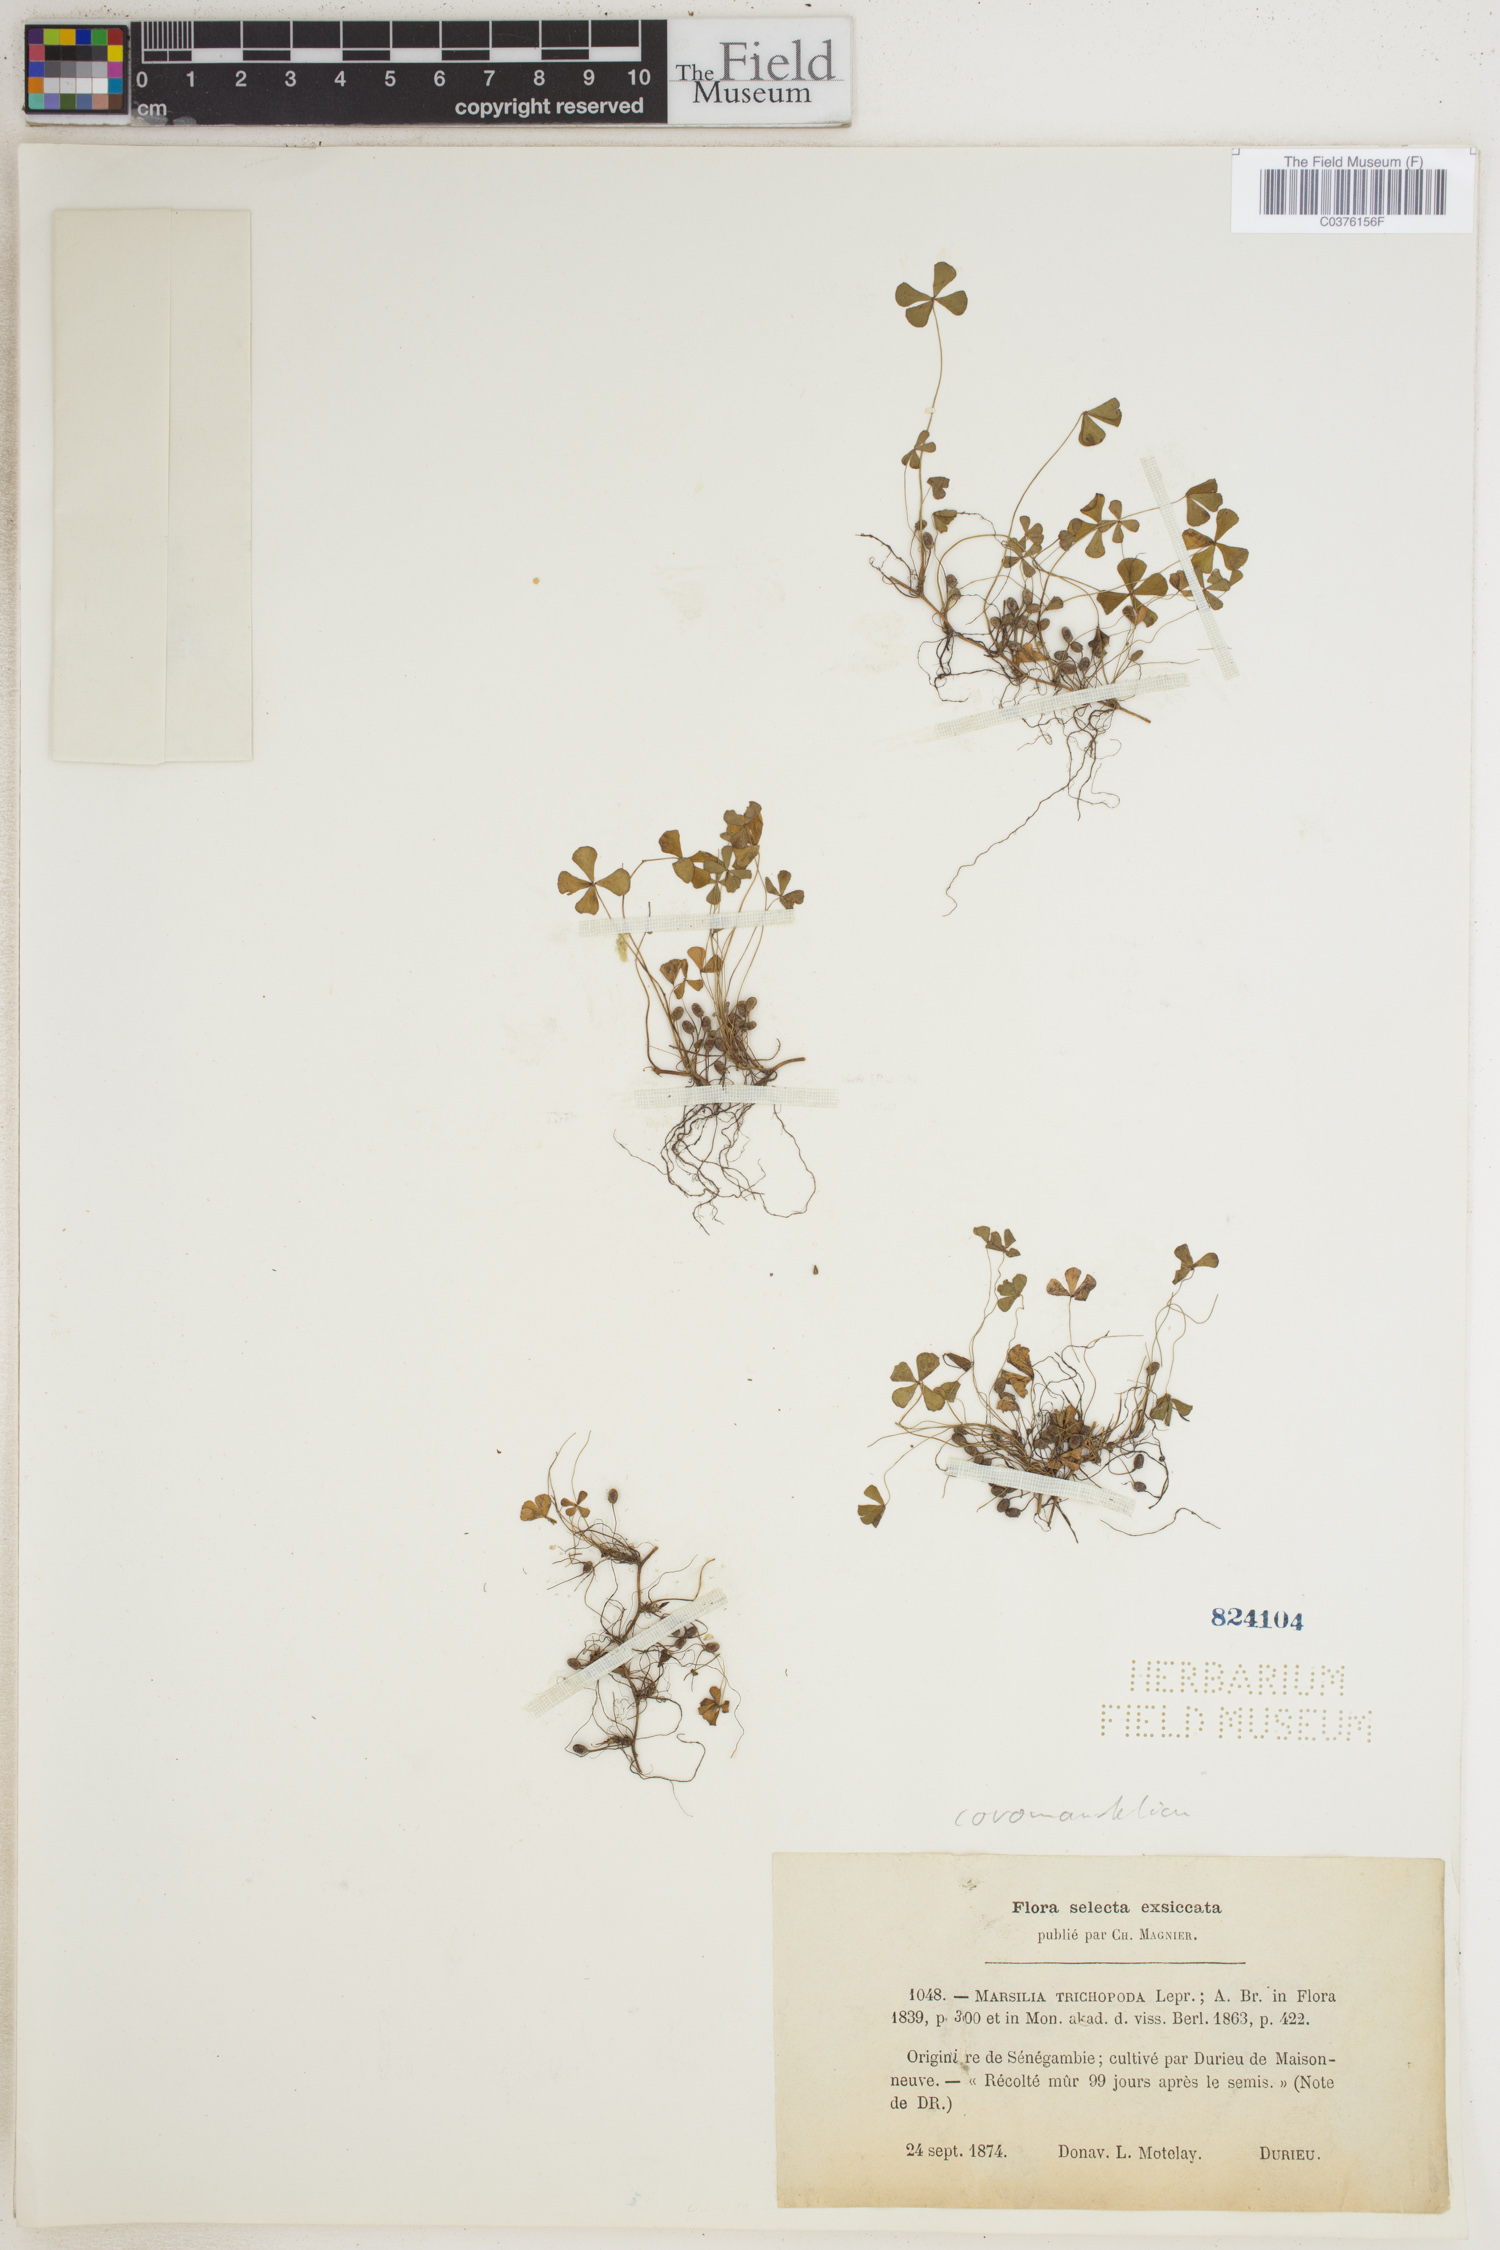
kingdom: Plantae
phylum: Tracheophyta
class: Polypodiopsida
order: Salviniales
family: Marsileaceae
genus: Marsilea
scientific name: Marsilea trichopoda
